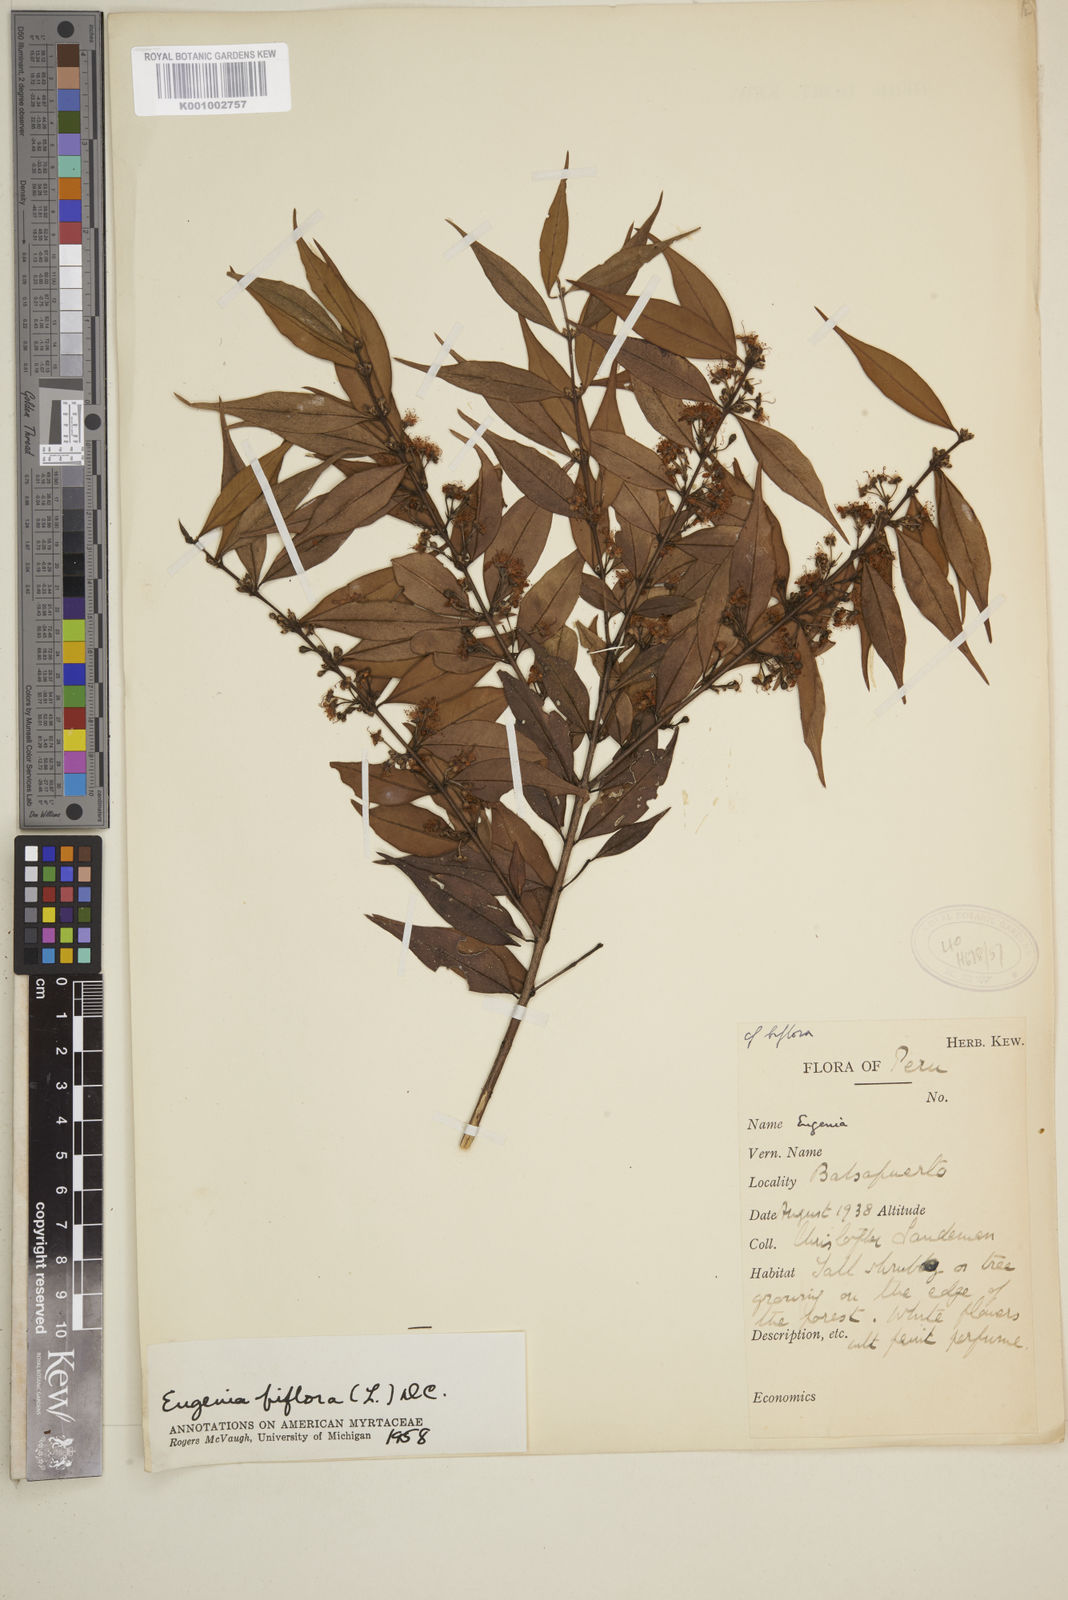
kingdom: Plantae
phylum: Tracheophyta
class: Magnoliopsida
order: Myrtales
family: Myrtaceae
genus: Eugenia
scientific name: Eugenia biflora
